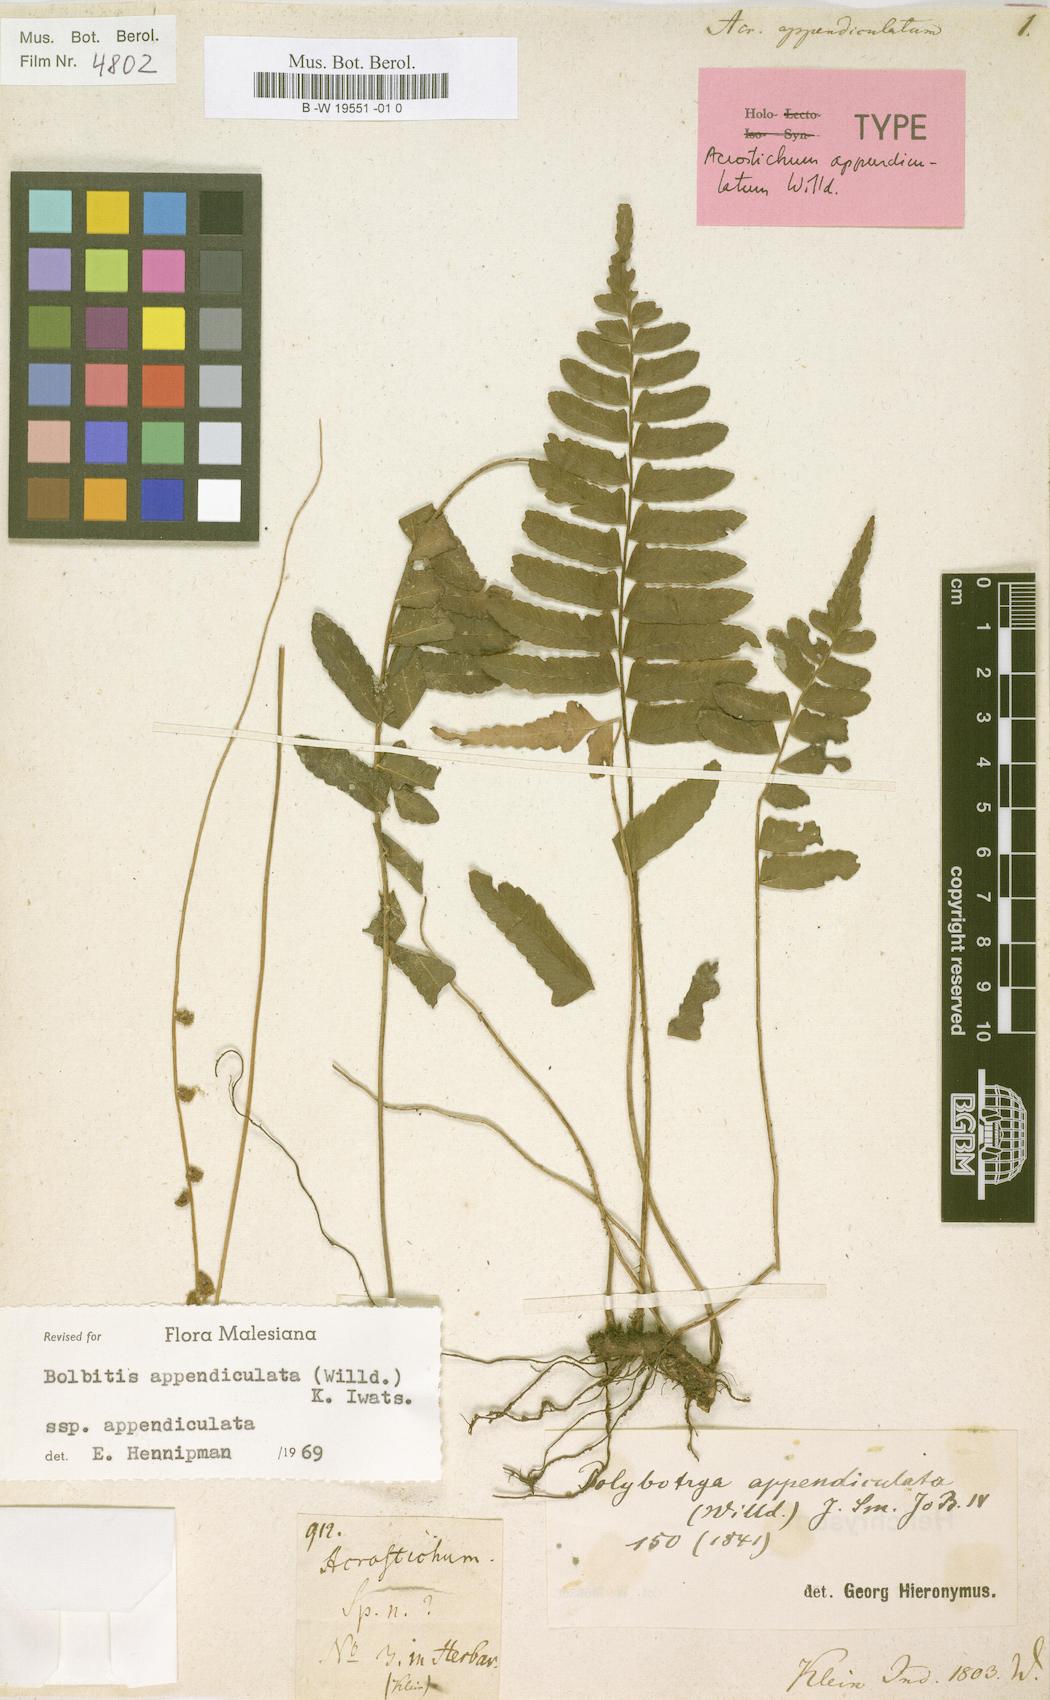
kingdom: Plantae
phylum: Tracheophyta
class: Polypodiopsida
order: Polypodiales
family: Dryopteridaceae
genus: Bolbitis
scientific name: Bolbitis appendiculata
